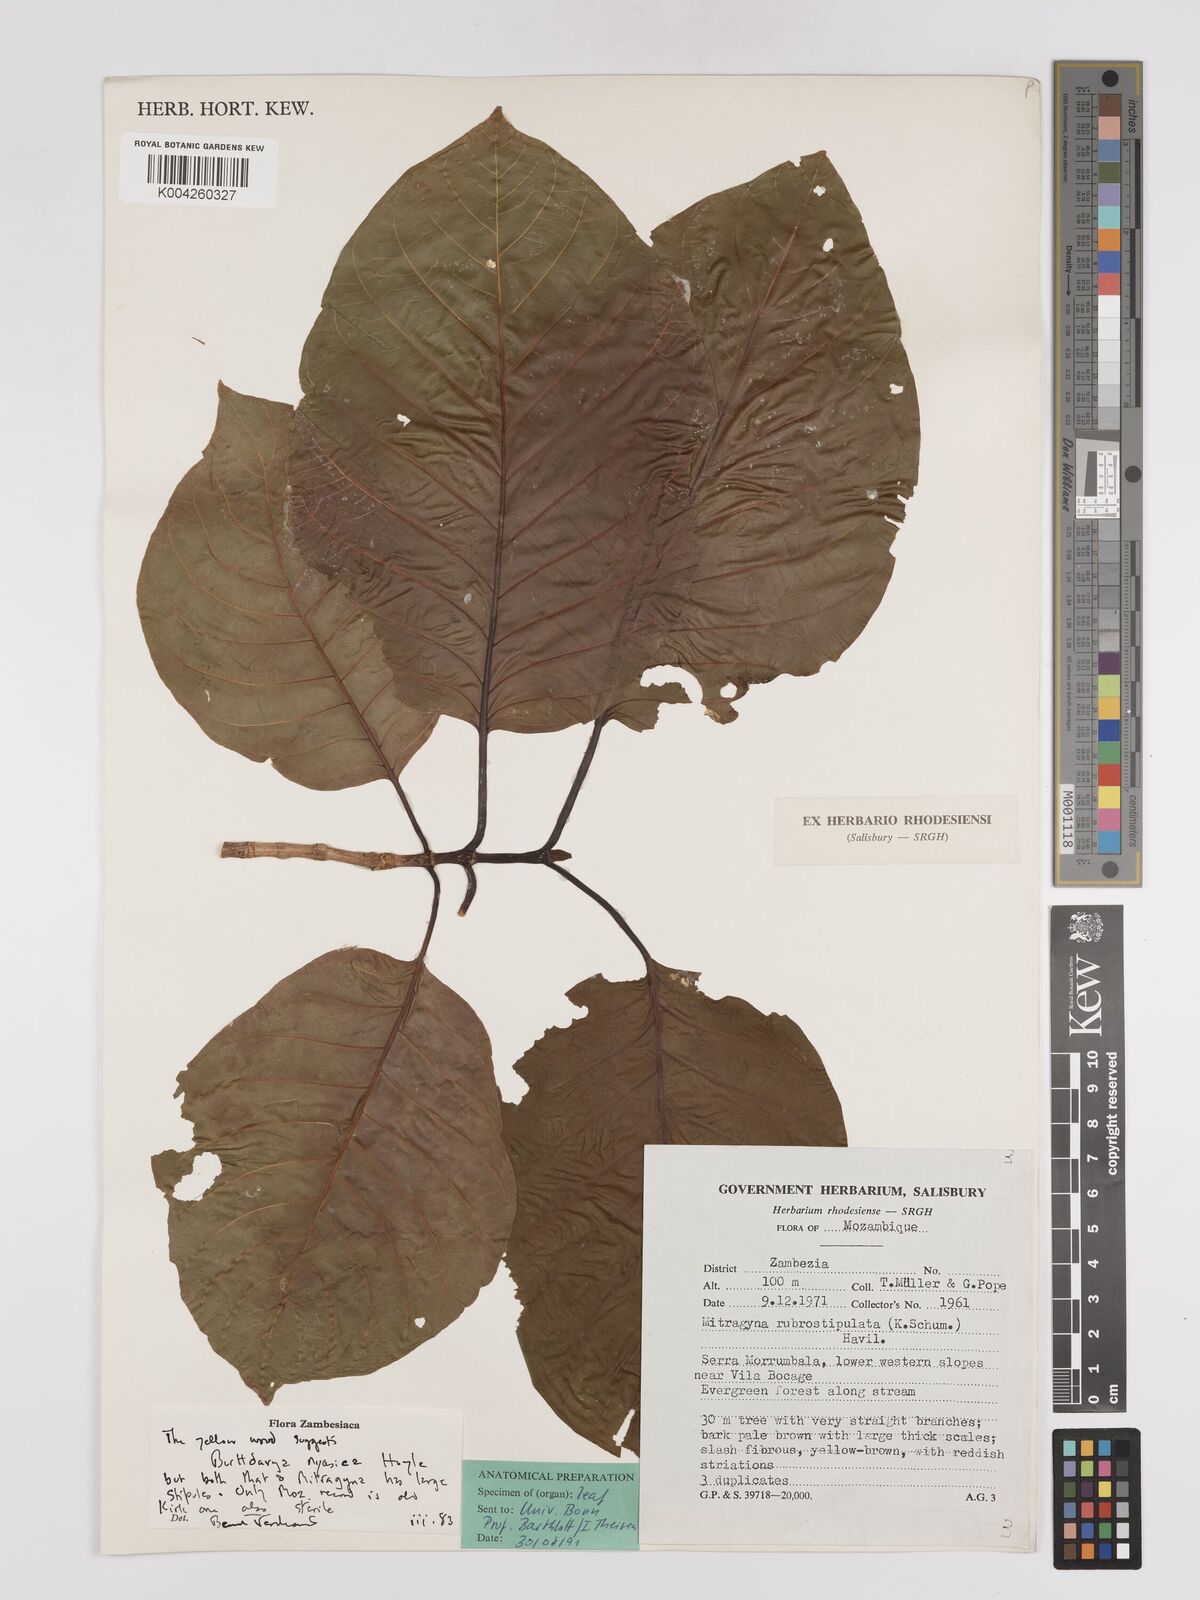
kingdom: Plantae
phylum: Tracheophyta
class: Magnoliopsida
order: Gentianales
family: Rubiaceae
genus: Nauclea
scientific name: Nauclea nyasica
